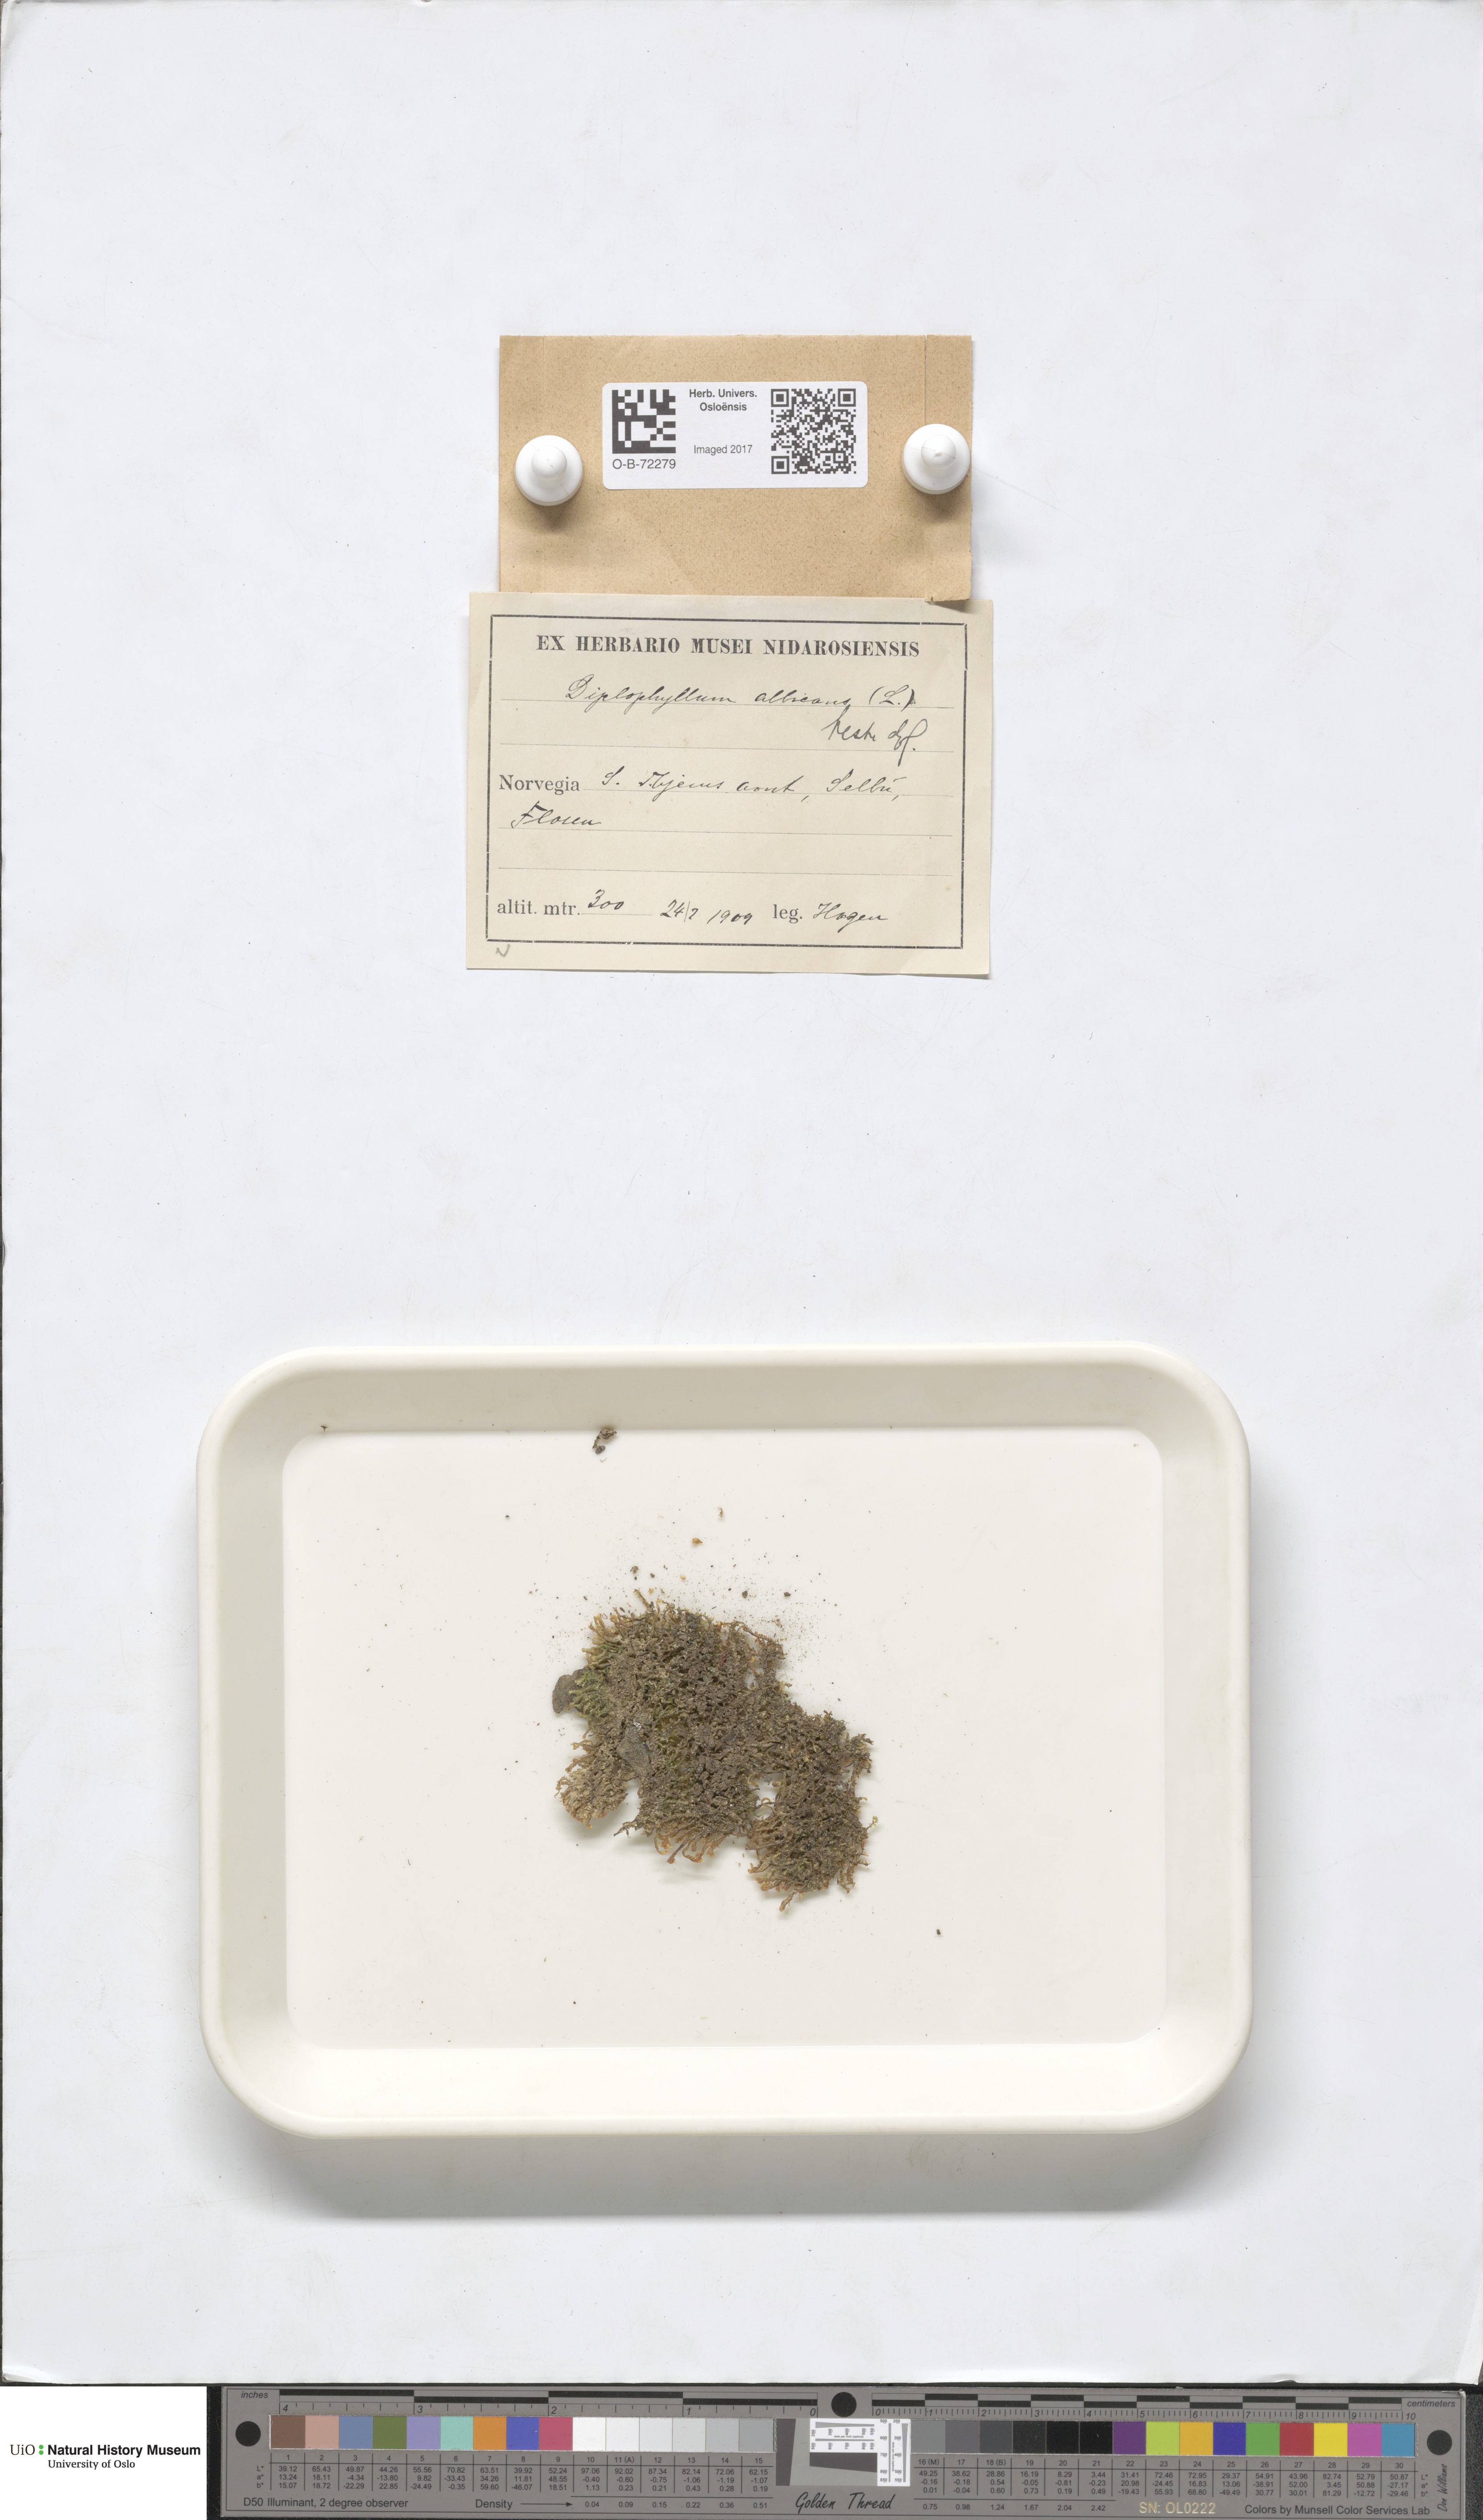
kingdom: Plantae
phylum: Marchantiophyta
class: Jungermanniopsida
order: Jungermanniales
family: Scapaniaceae
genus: Diplophyllum
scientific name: Diplophyllum albicans
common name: White earwort
